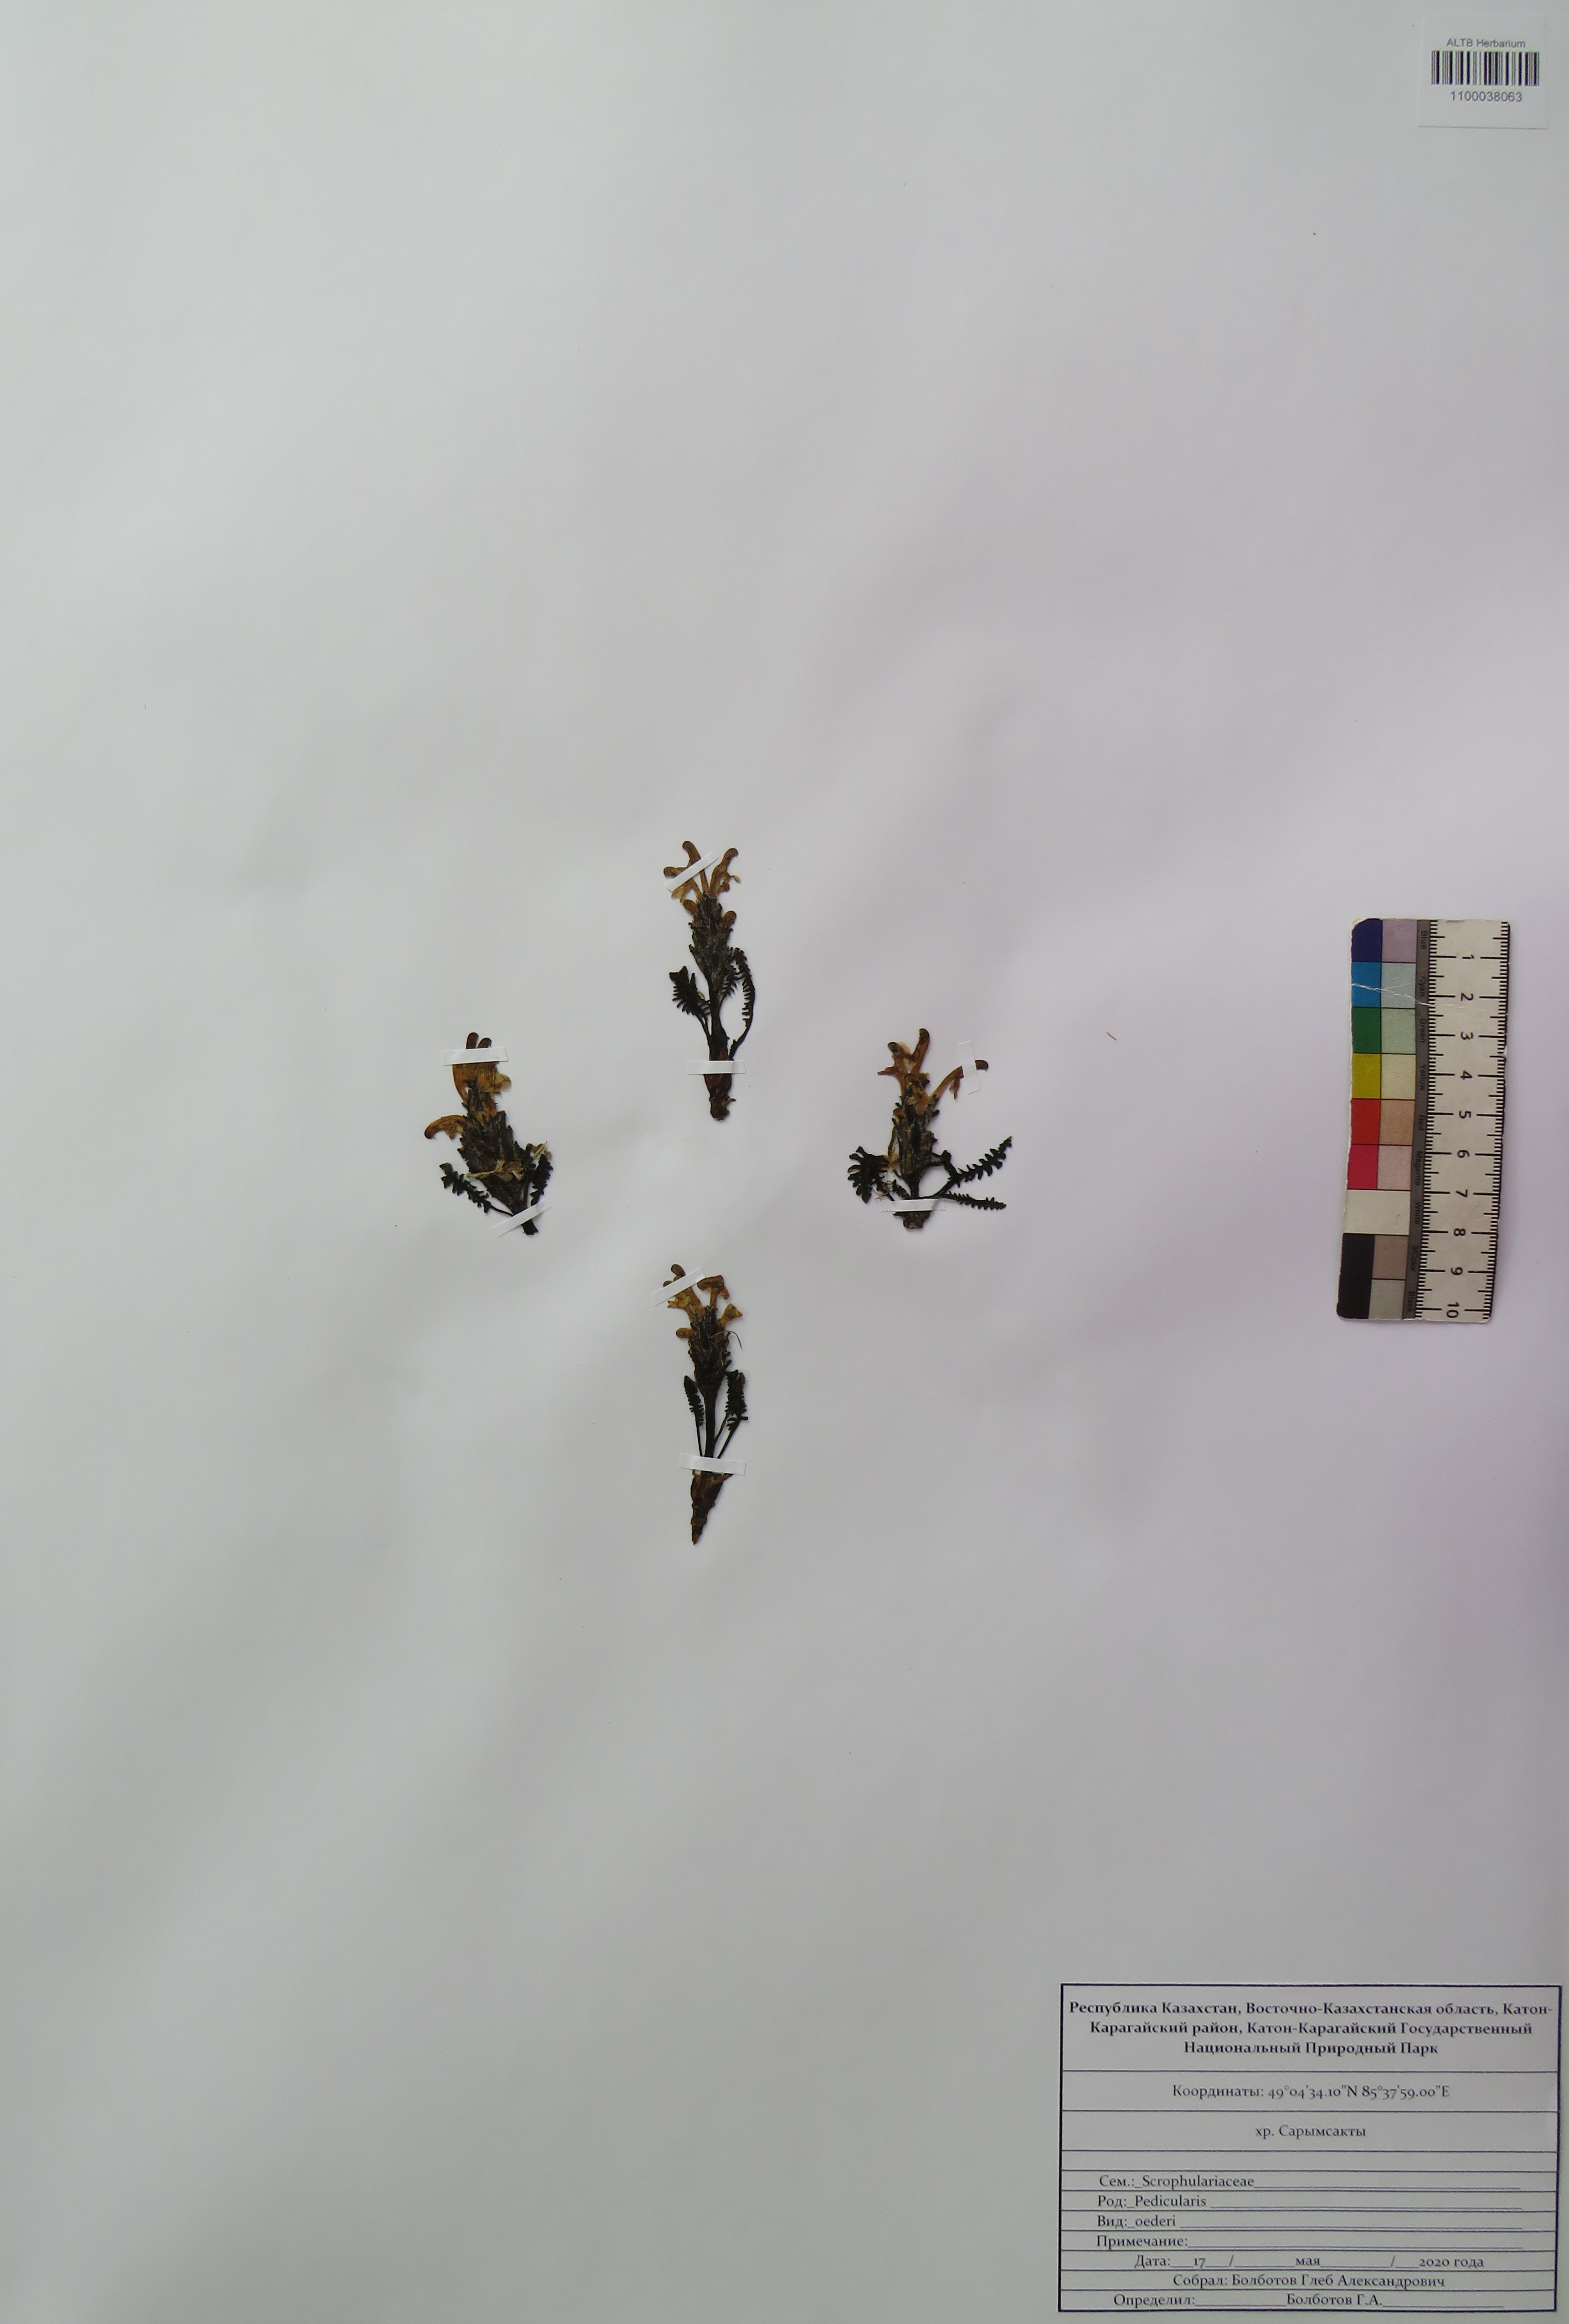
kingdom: Plantae
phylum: Tracheophyta
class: Magnoliopsida
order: Lamiales
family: Orobanchaceae
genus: Pedicularis
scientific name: Pedicularis oederi
